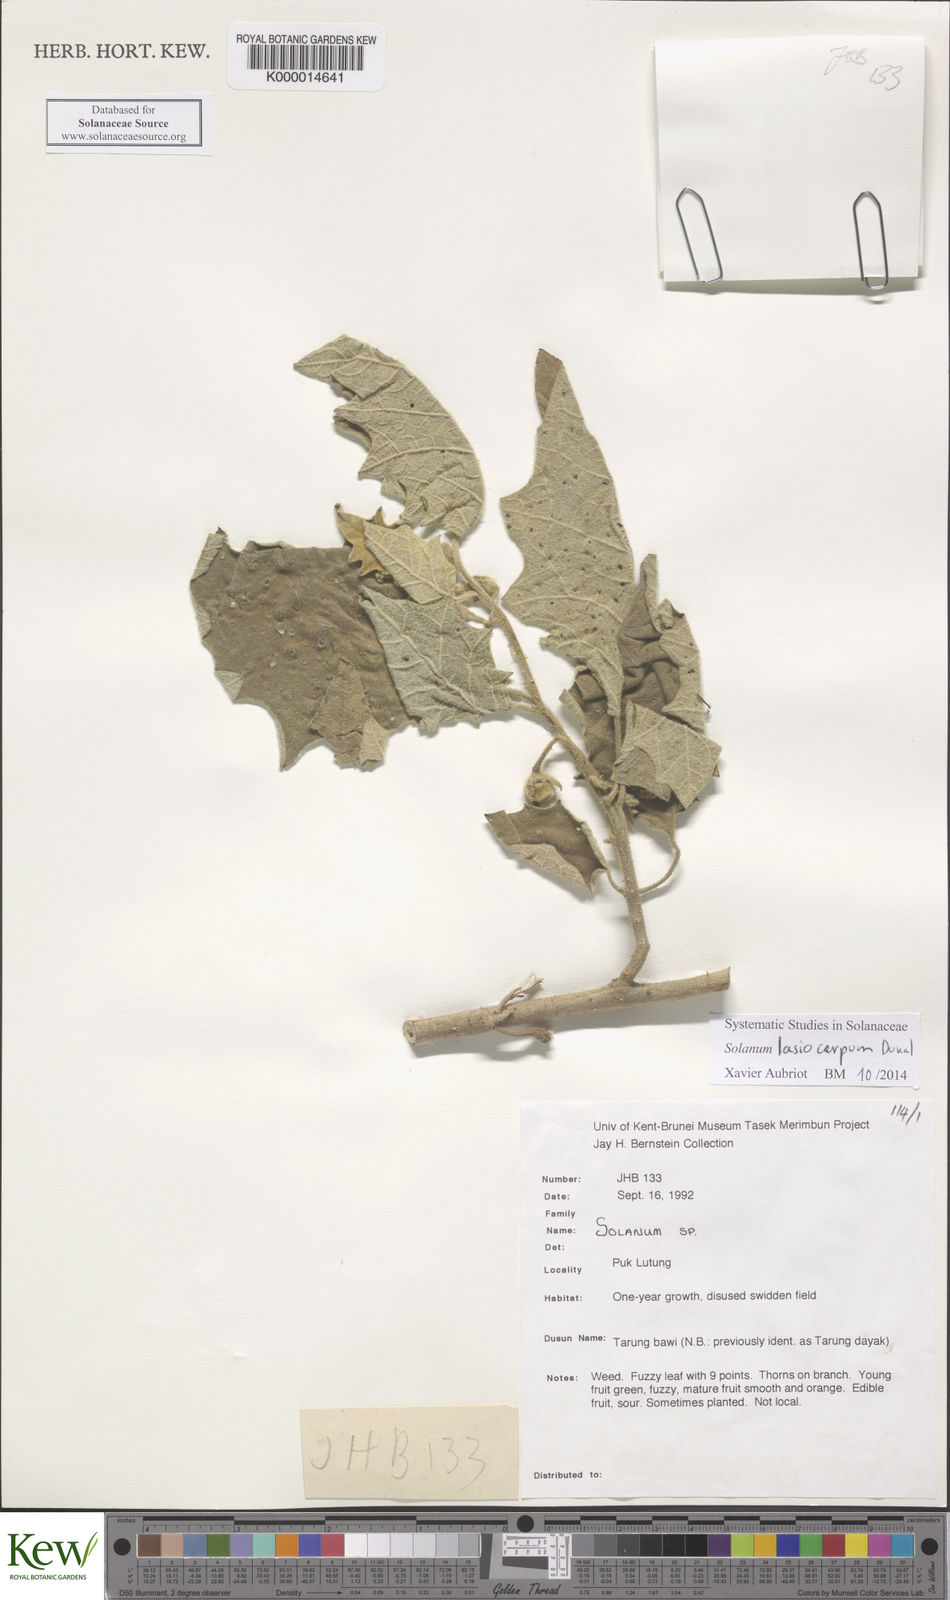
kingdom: Plantae
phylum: Tracheophyta
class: Magnoliopsida
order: Solanales
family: Solanaceae
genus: Solanum
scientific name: Solanum lasiocarpum
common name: Indian nightshade
